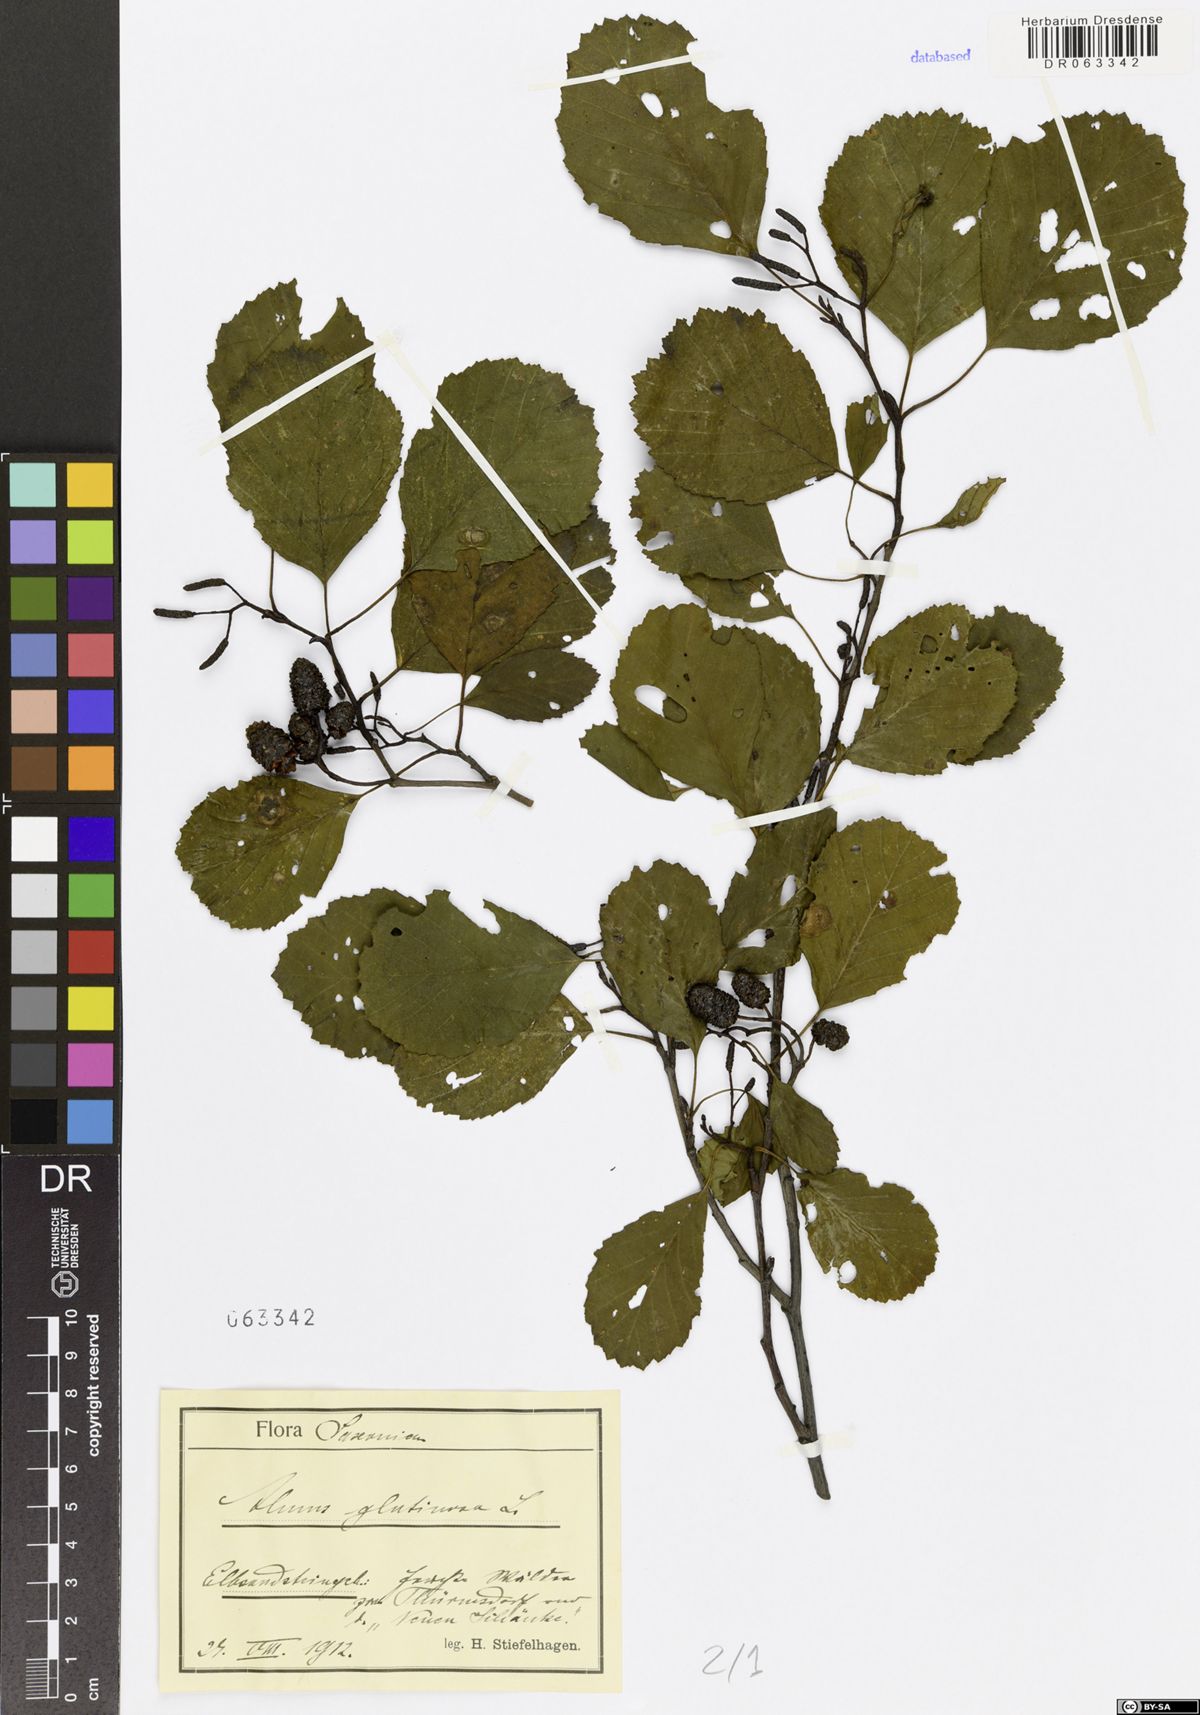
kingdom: Plantae
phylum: Tracheophyta
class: Magnoliopsida
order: Fagales
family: Betulaceae
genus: Alnus
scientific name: Alnus glutinosa
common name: Black alder
